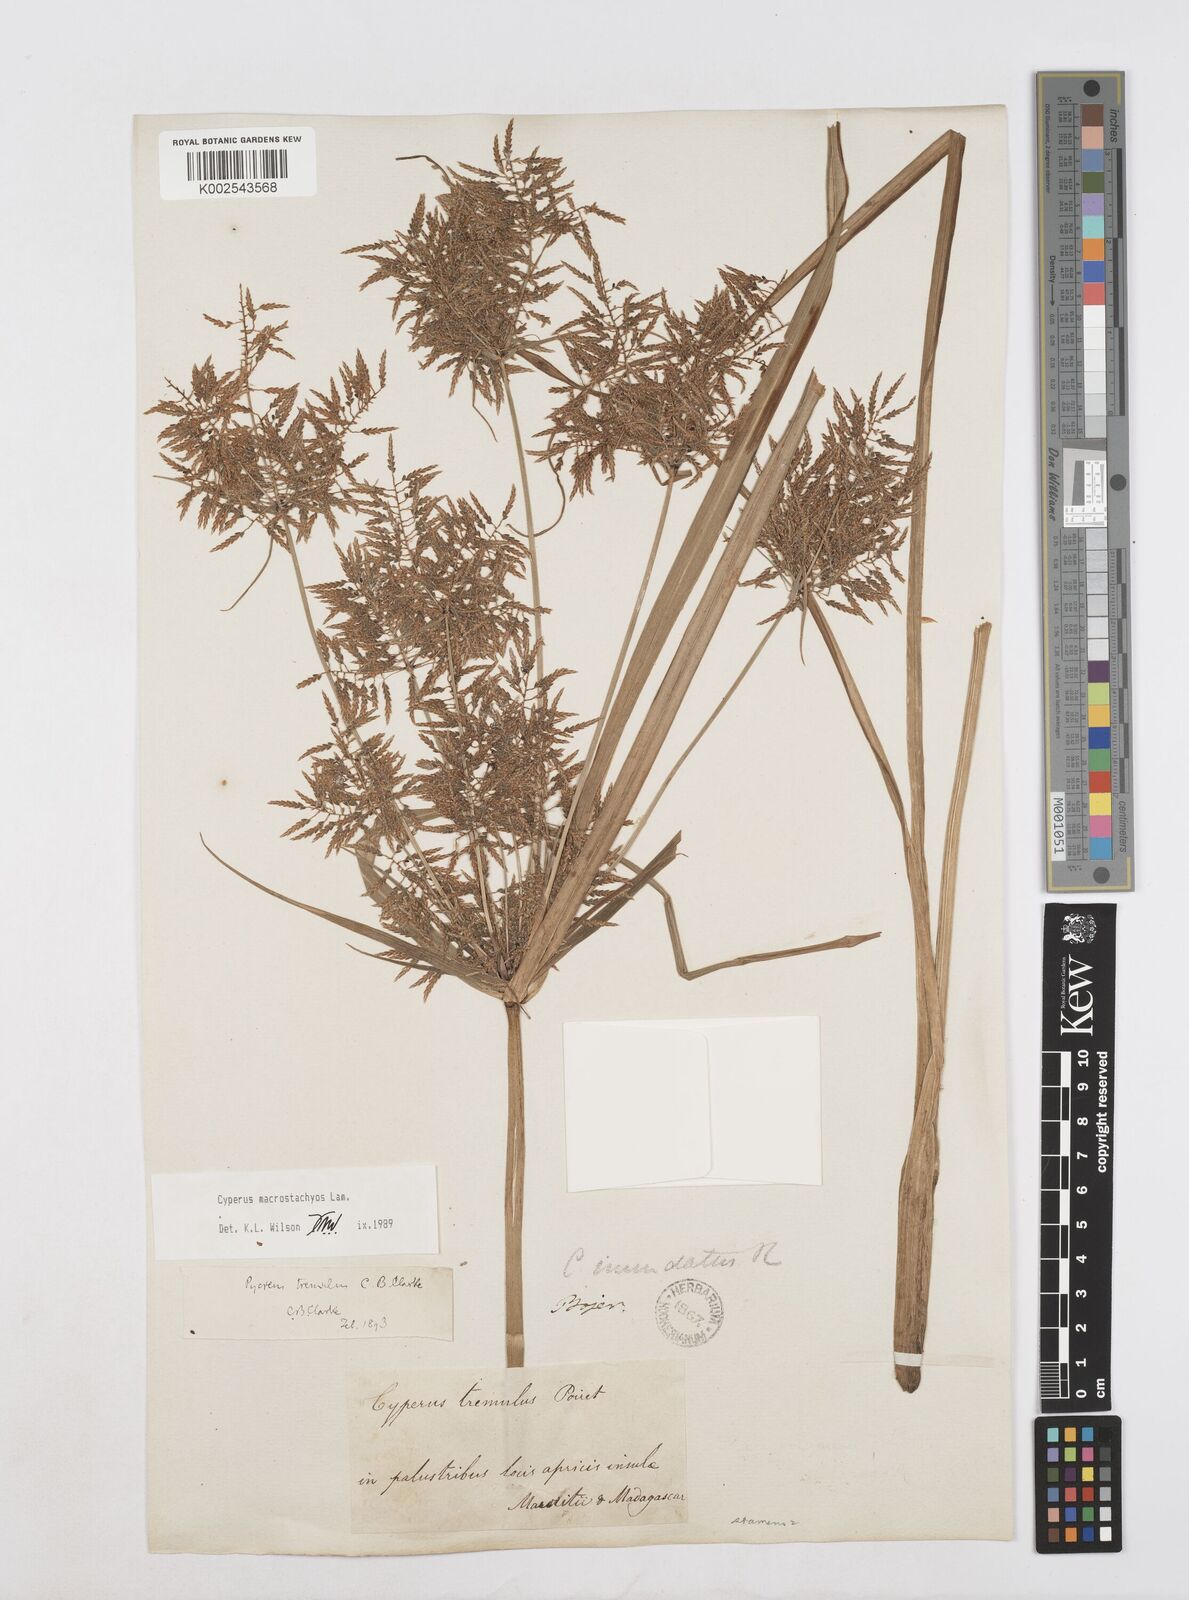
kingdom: Plantae
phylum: Tracheophyta
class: Liliopsida
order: Poales
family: Cyperaceae
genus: Cyperus
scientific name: Cyperus macrostachyos
